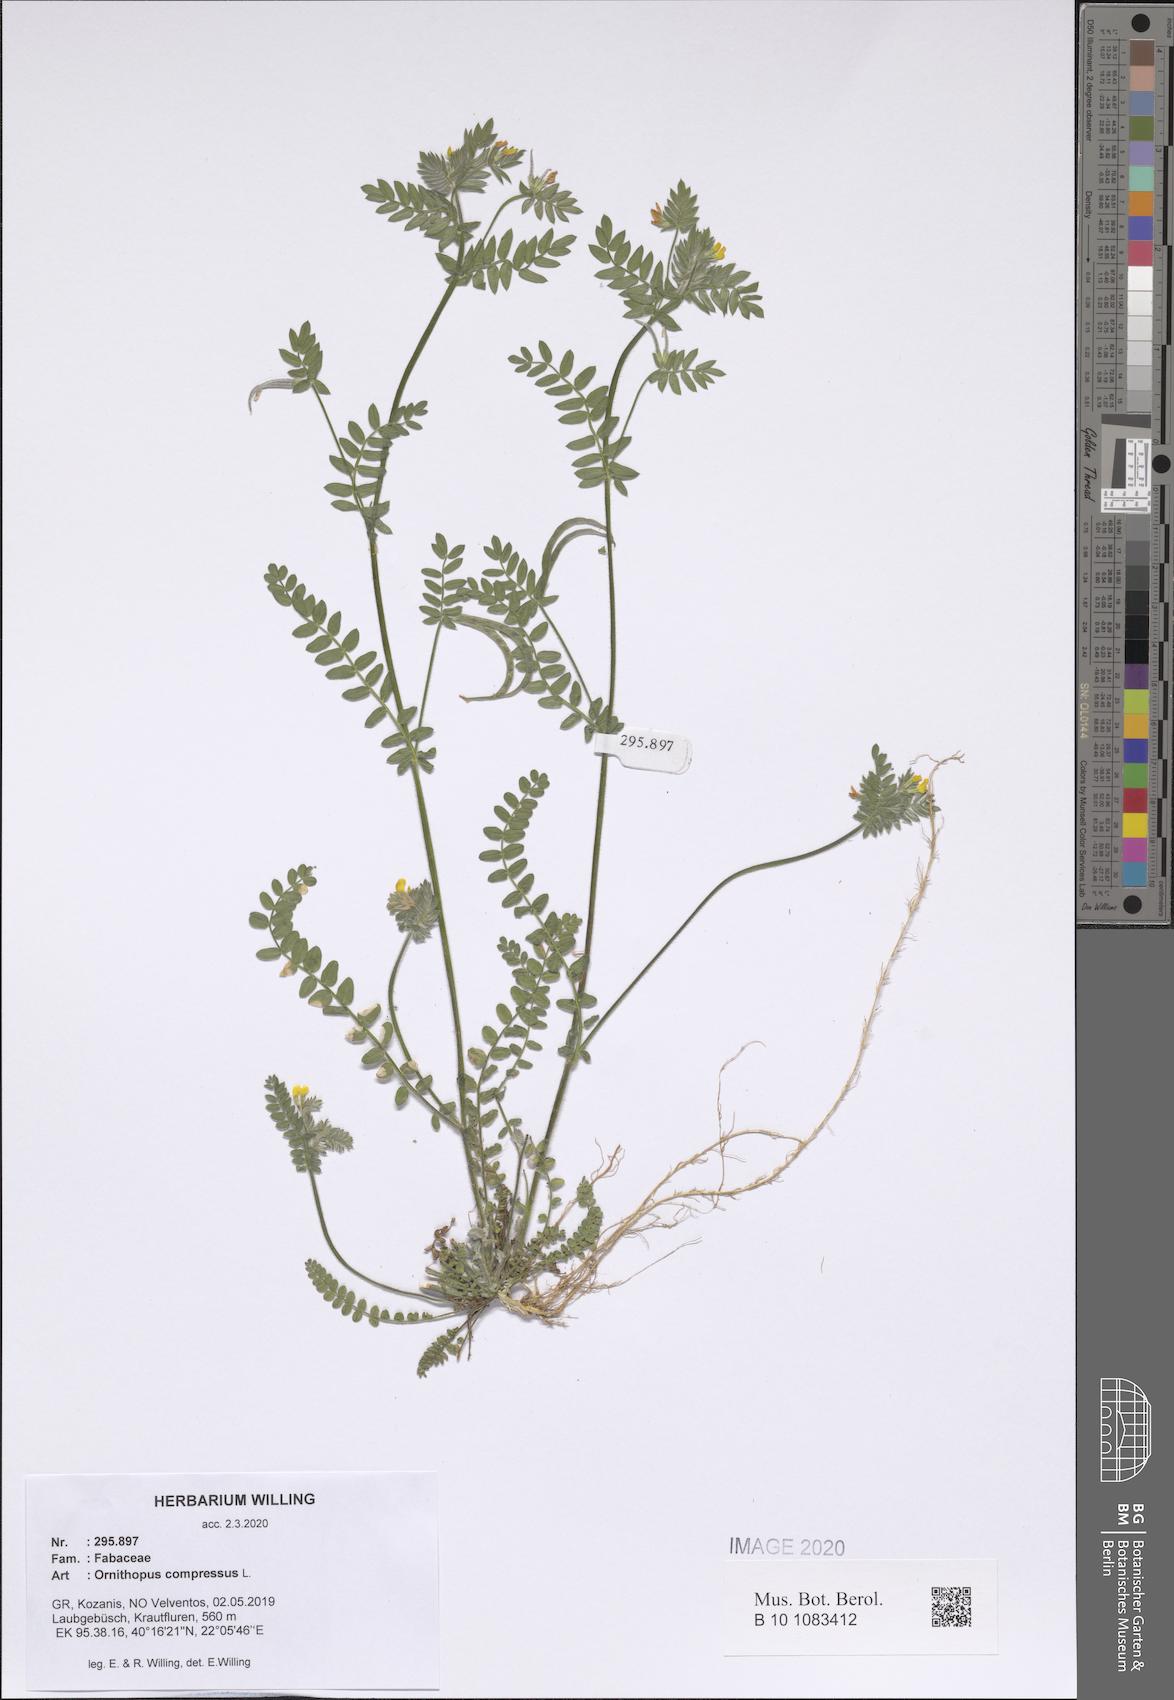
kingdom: Plantae
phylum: Tracheophyta
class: Magnoliopsida
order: Fabales
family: Fabaceae
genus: Ornithopus
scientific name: Ornithopus compressus
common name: Yellow serradella
